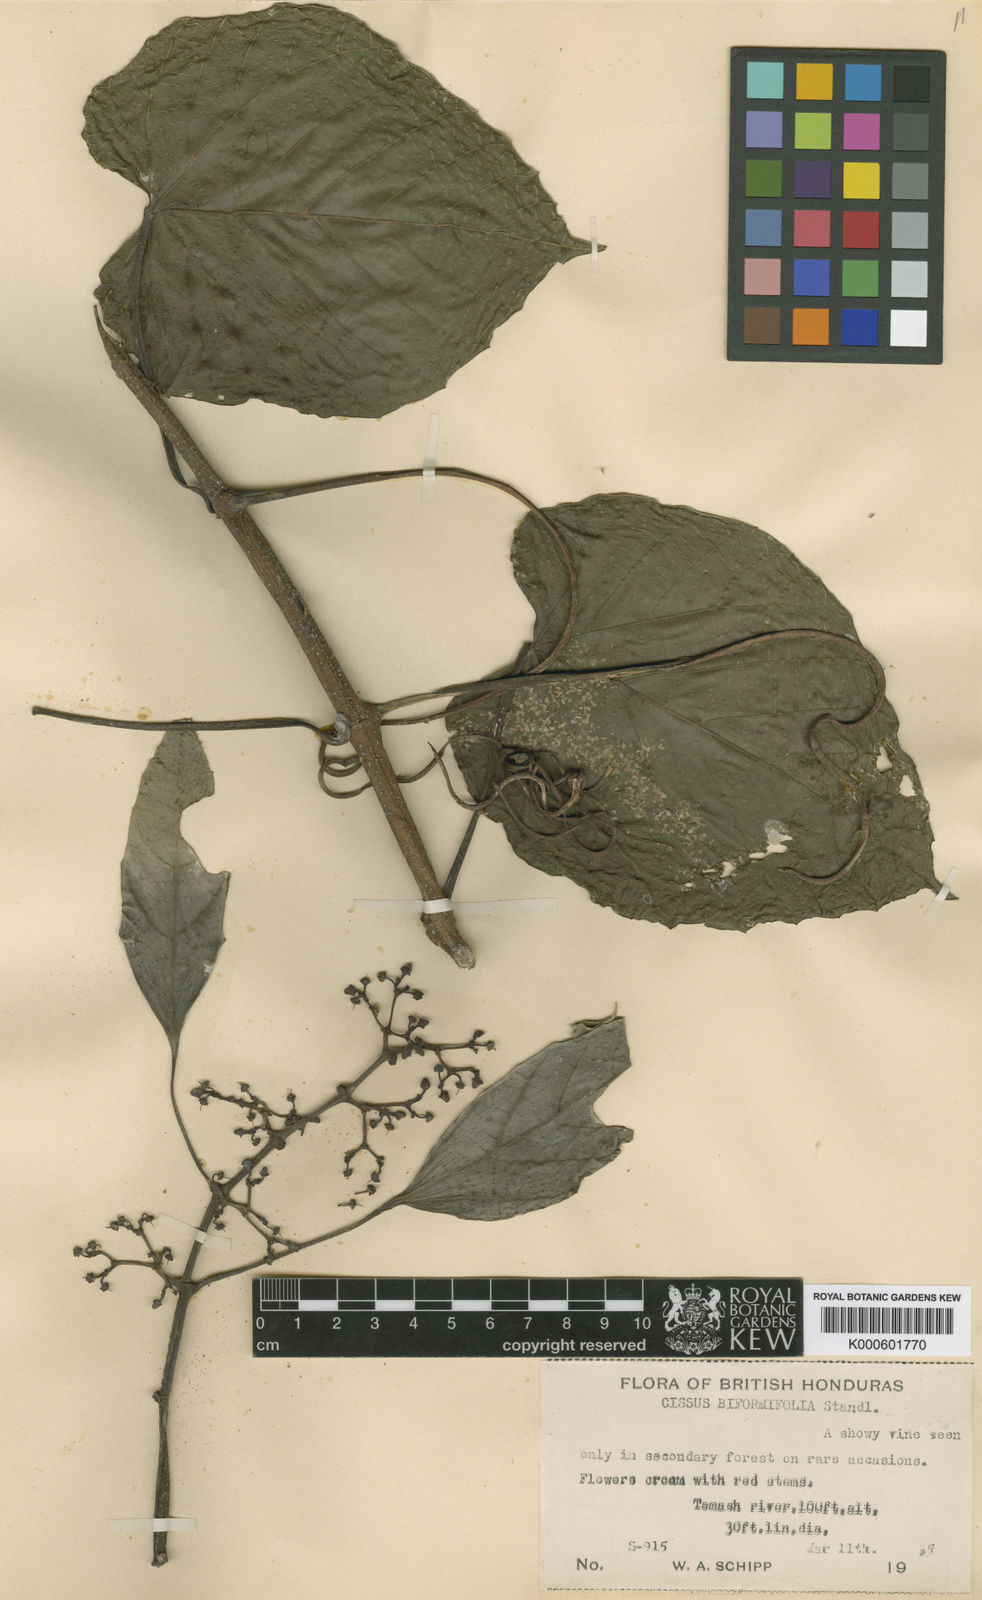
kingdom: Plantae
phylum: Tracheophyta
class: Magnoliopsida
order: Vitales
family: Vitaceae
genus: Cissus
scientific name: Cissus biformifolia
